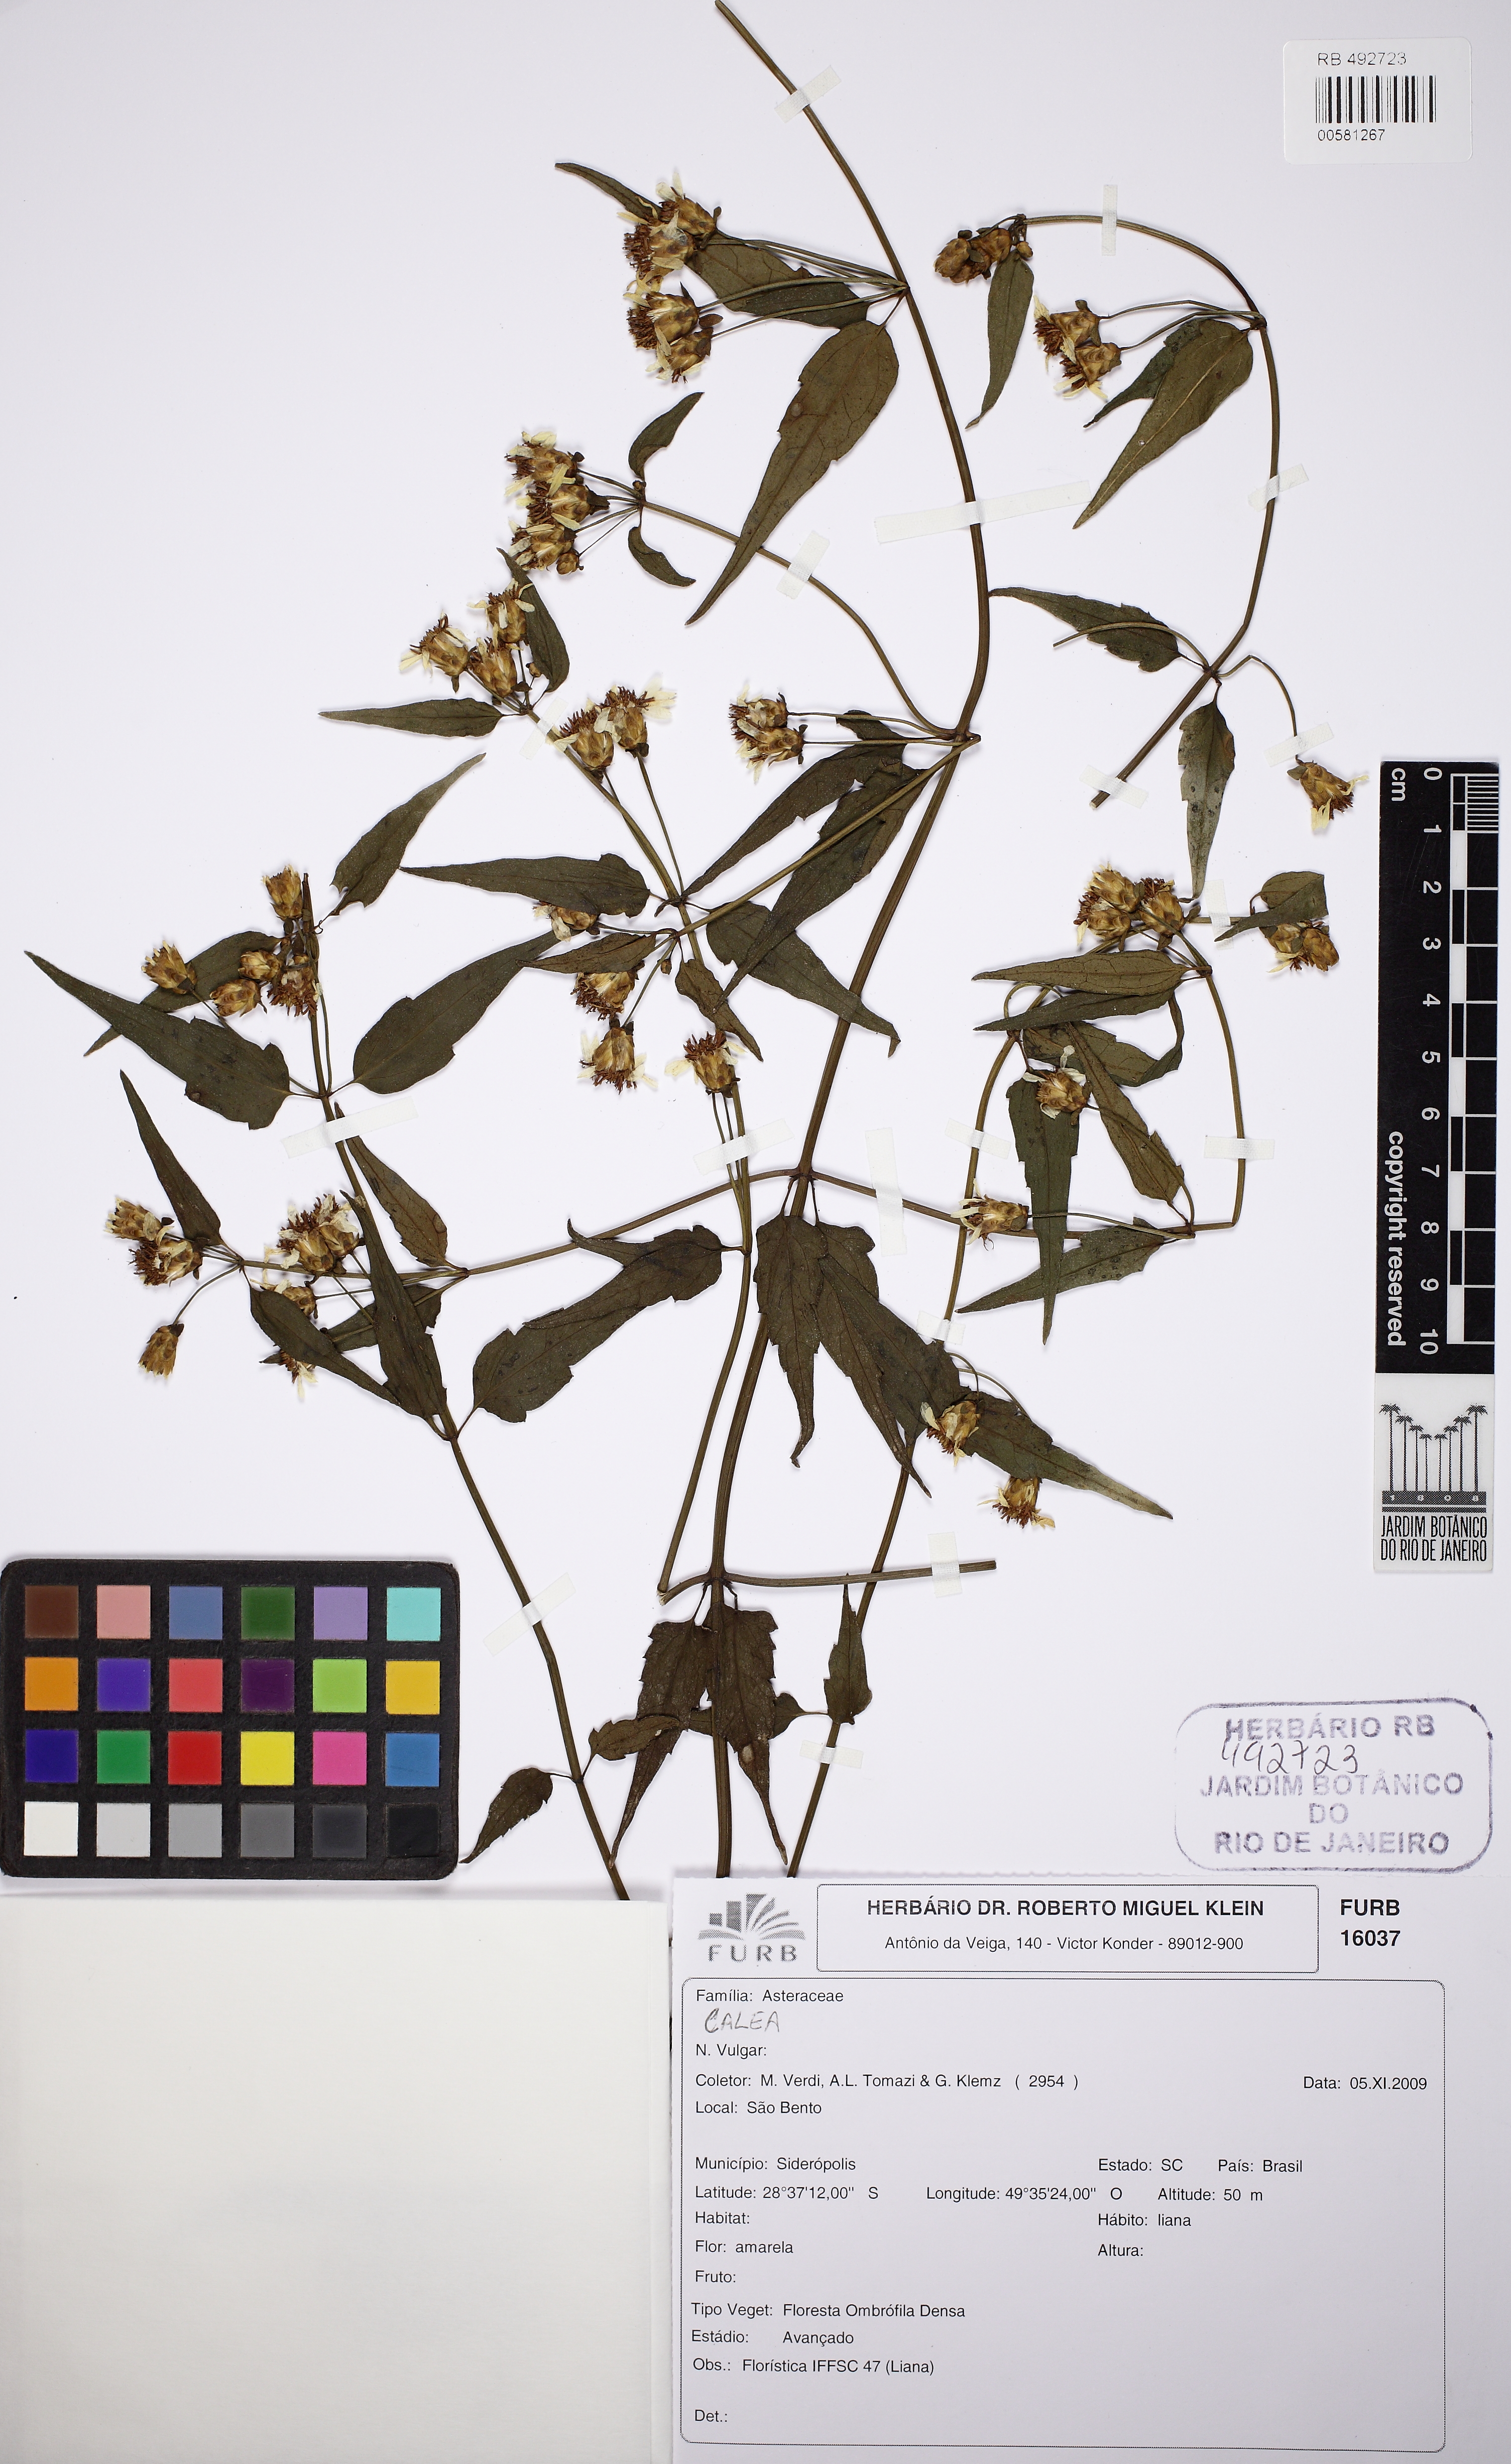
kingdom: Plantae
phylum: Tracheophyta
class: Magnoliopsida
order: Asterales
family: Asteraceae
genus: Calea
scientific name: Calea pinnatifida
